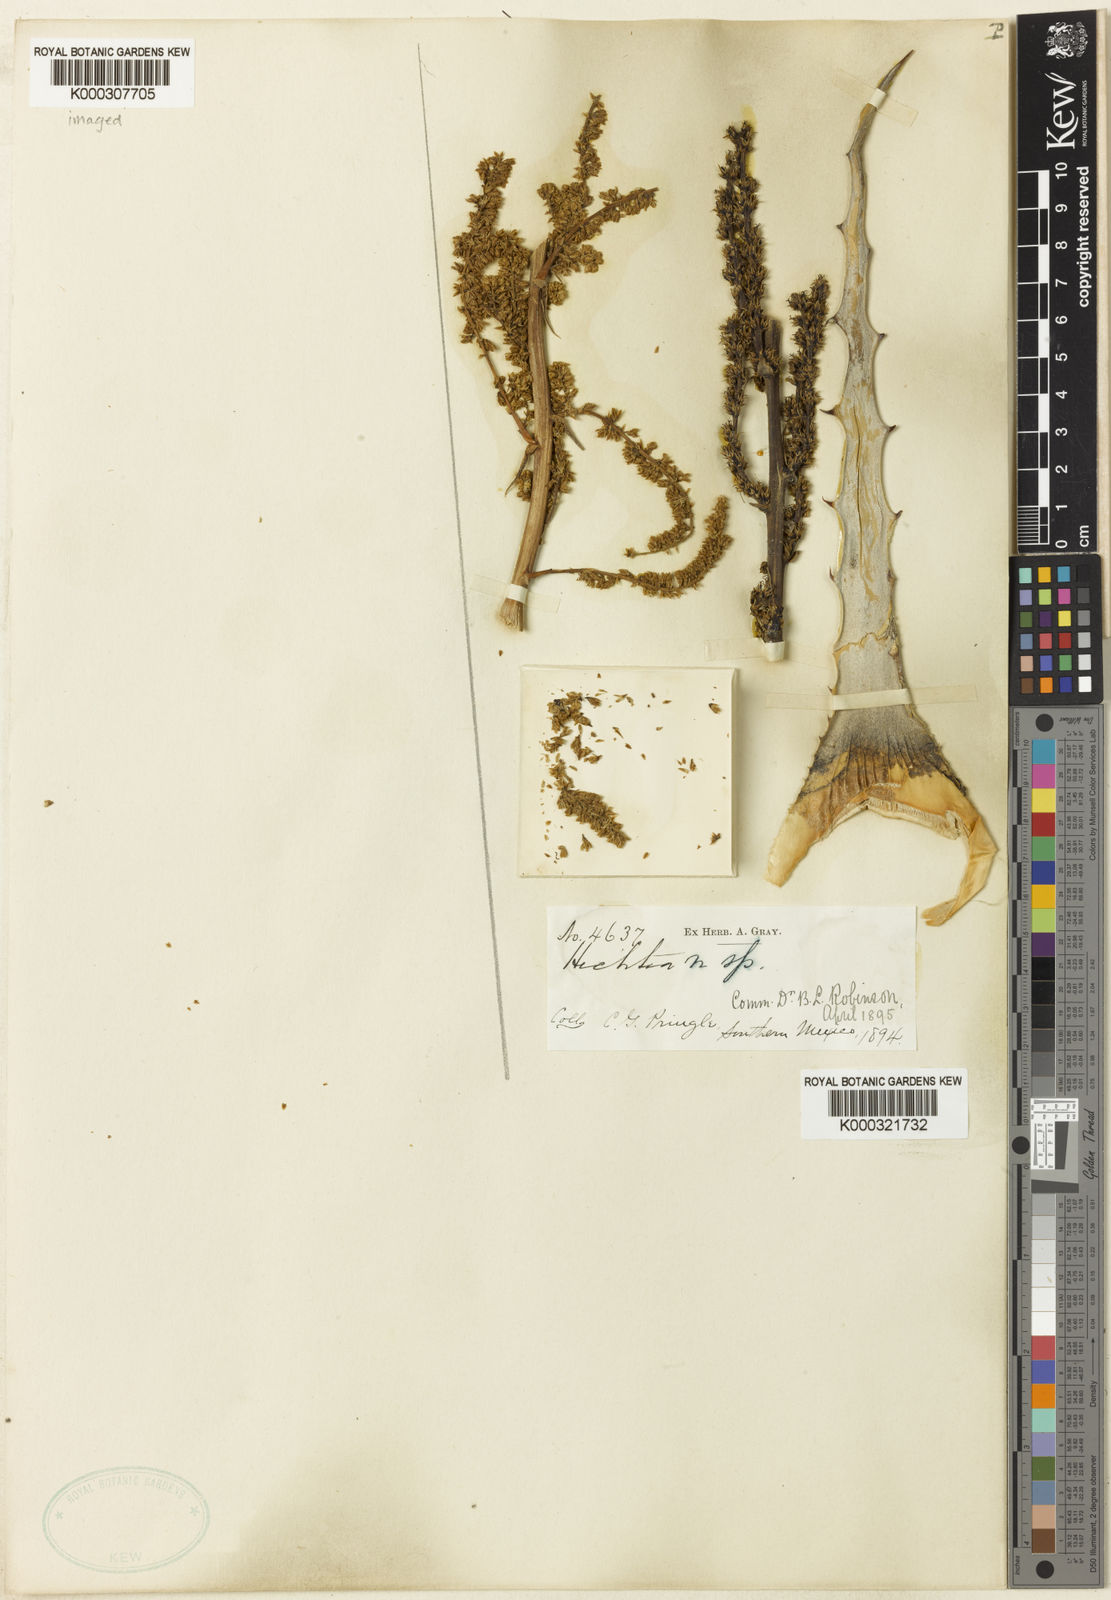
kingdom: Plantae
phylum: Tracheophyta
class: Liliopsida
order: Poales
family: Bromeliaceae
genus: Hechtia
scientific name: Hechtia stenopetala
